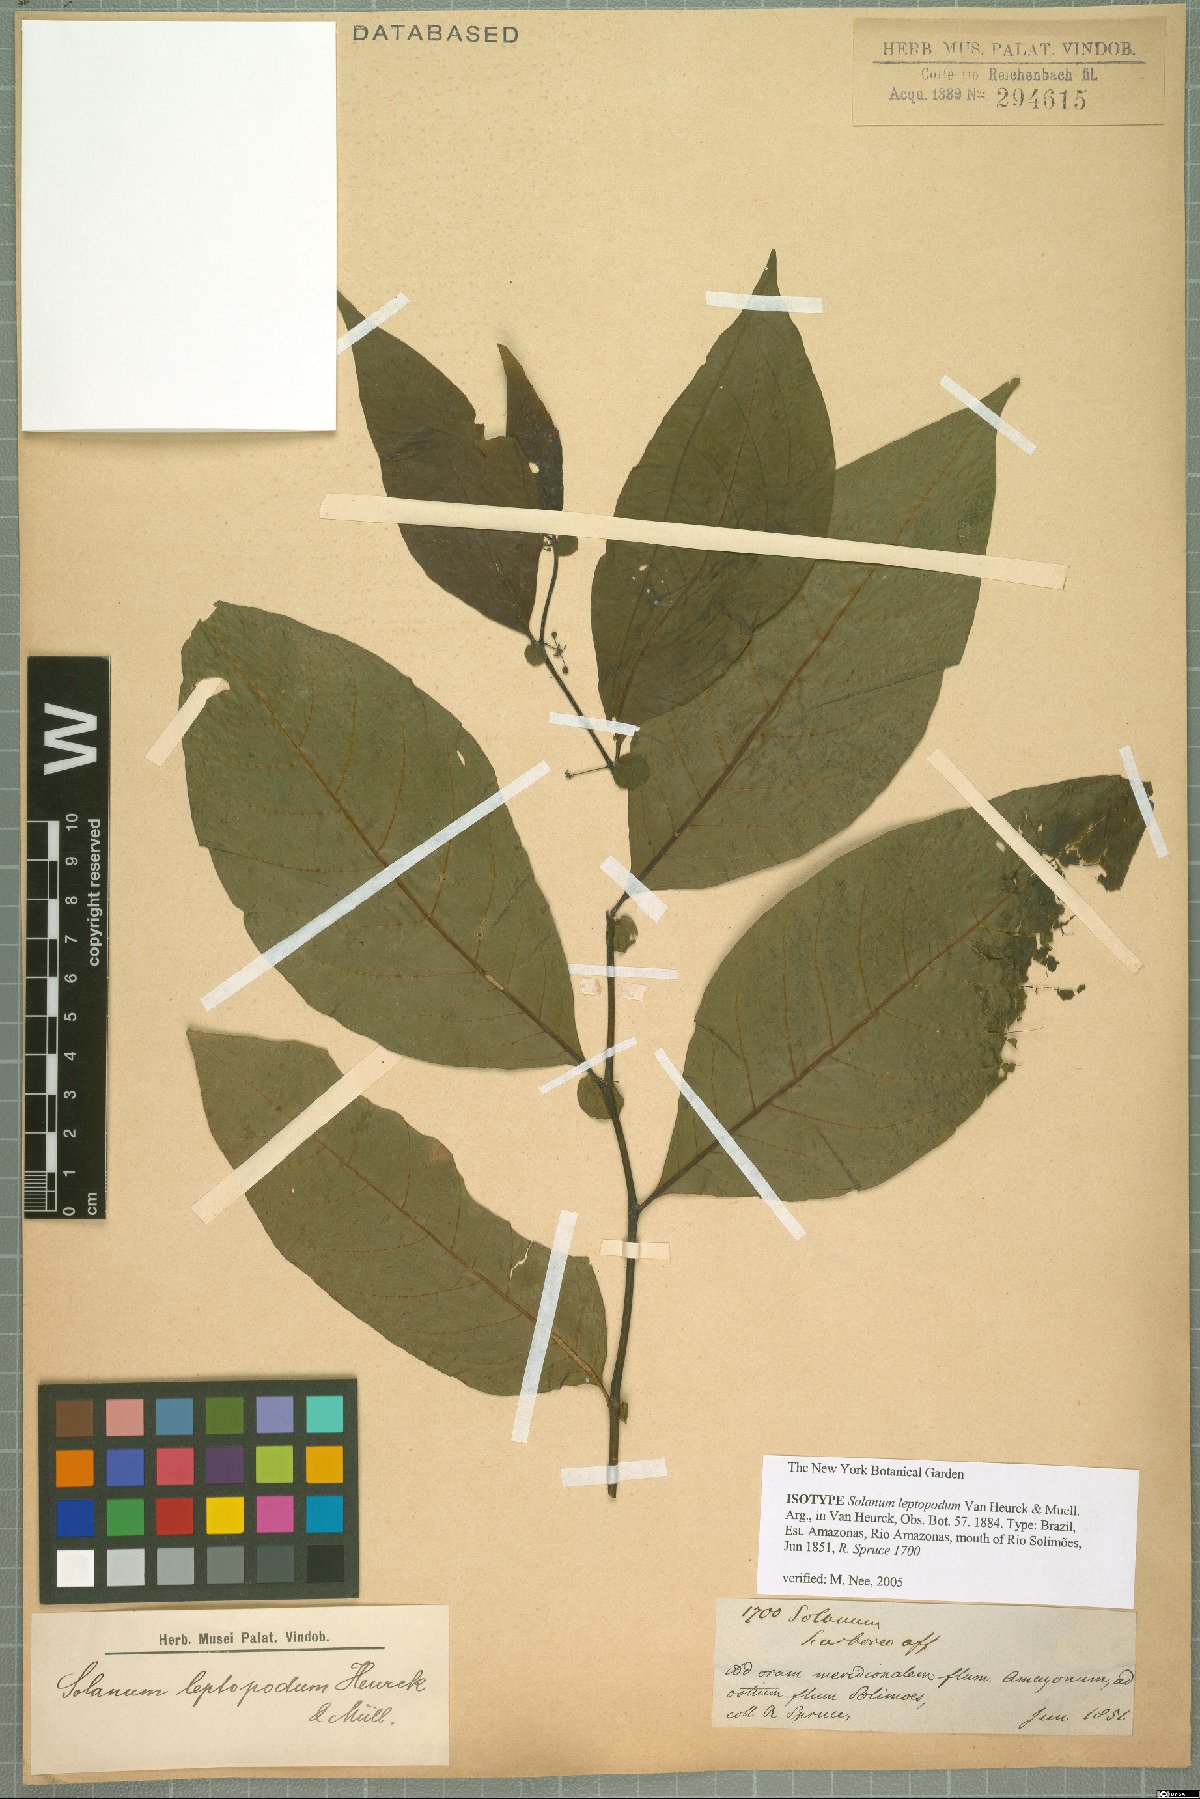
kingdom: Plantae
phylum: Tracheophyta
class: Magnoliopsida
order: Solanales
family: Solanaceae
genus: Solanum
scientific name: Solanum leptopodum
